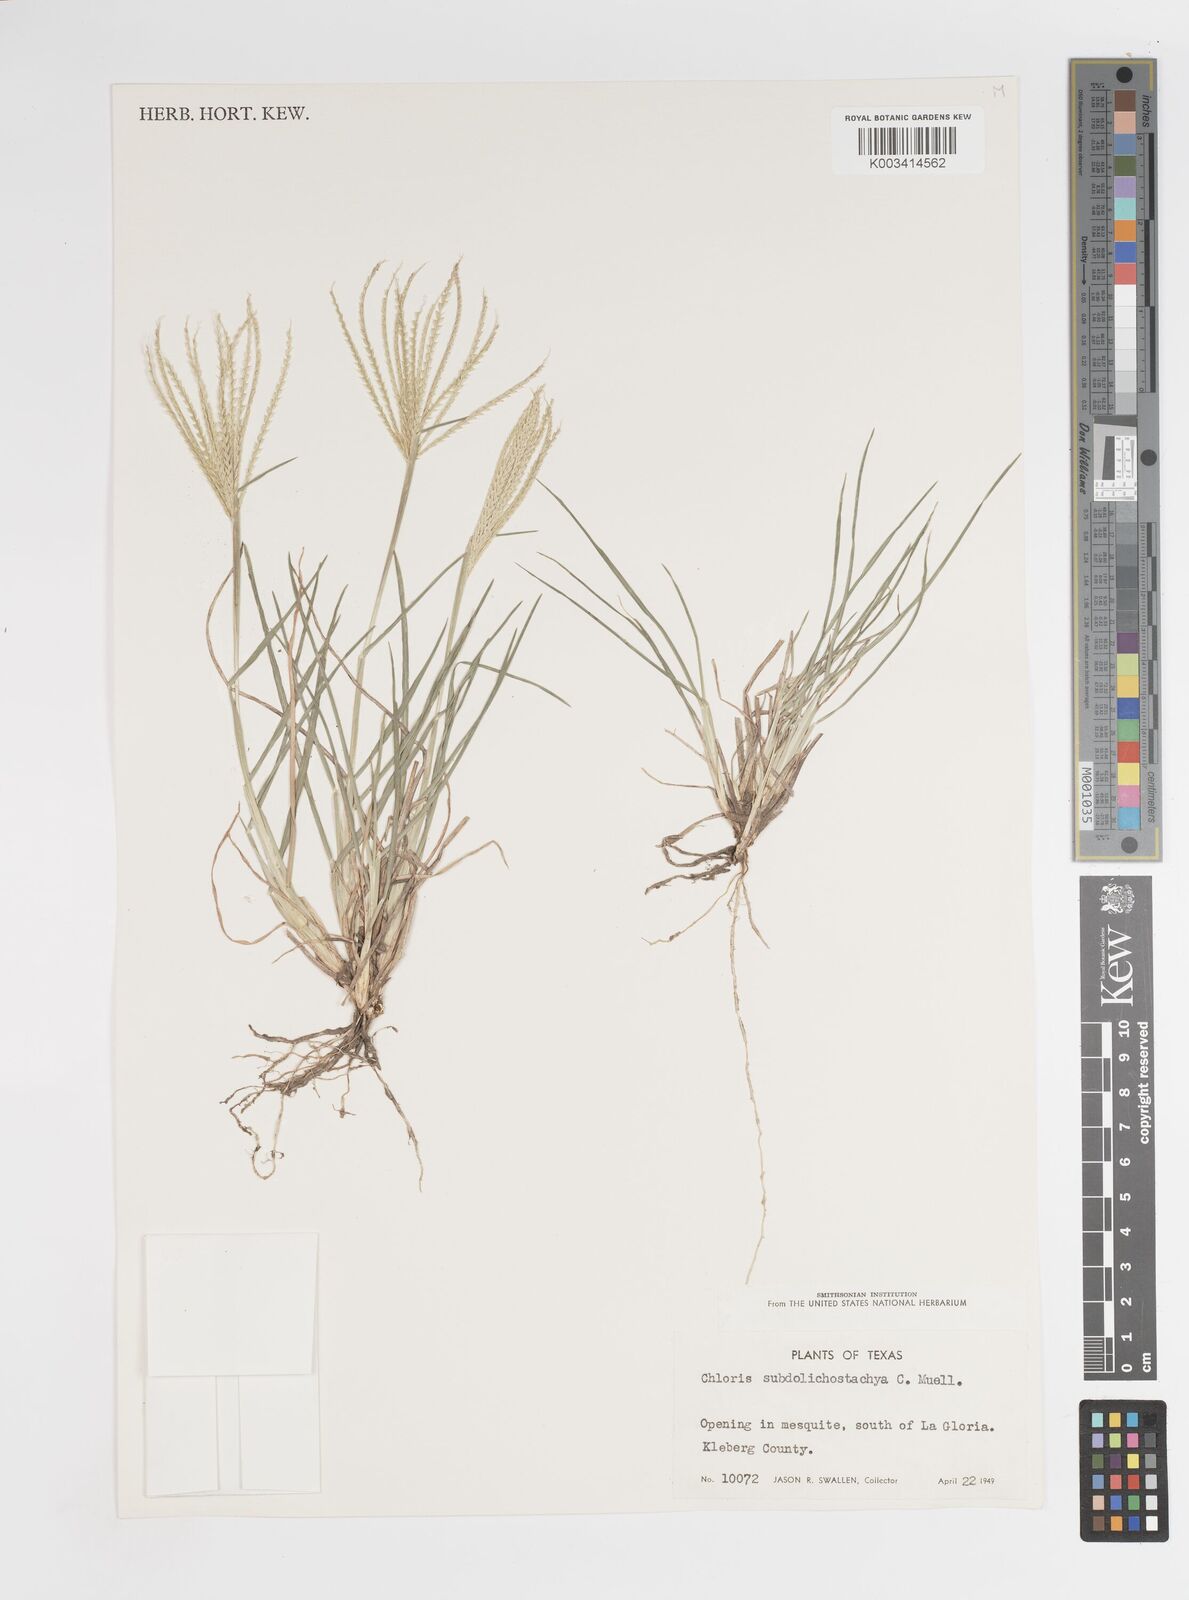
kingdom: Plantae
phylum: Tracheophyta
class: Liliopsida
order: Poales
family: Poaceae
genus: Chloris
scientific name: Chloris subdolichostachya
